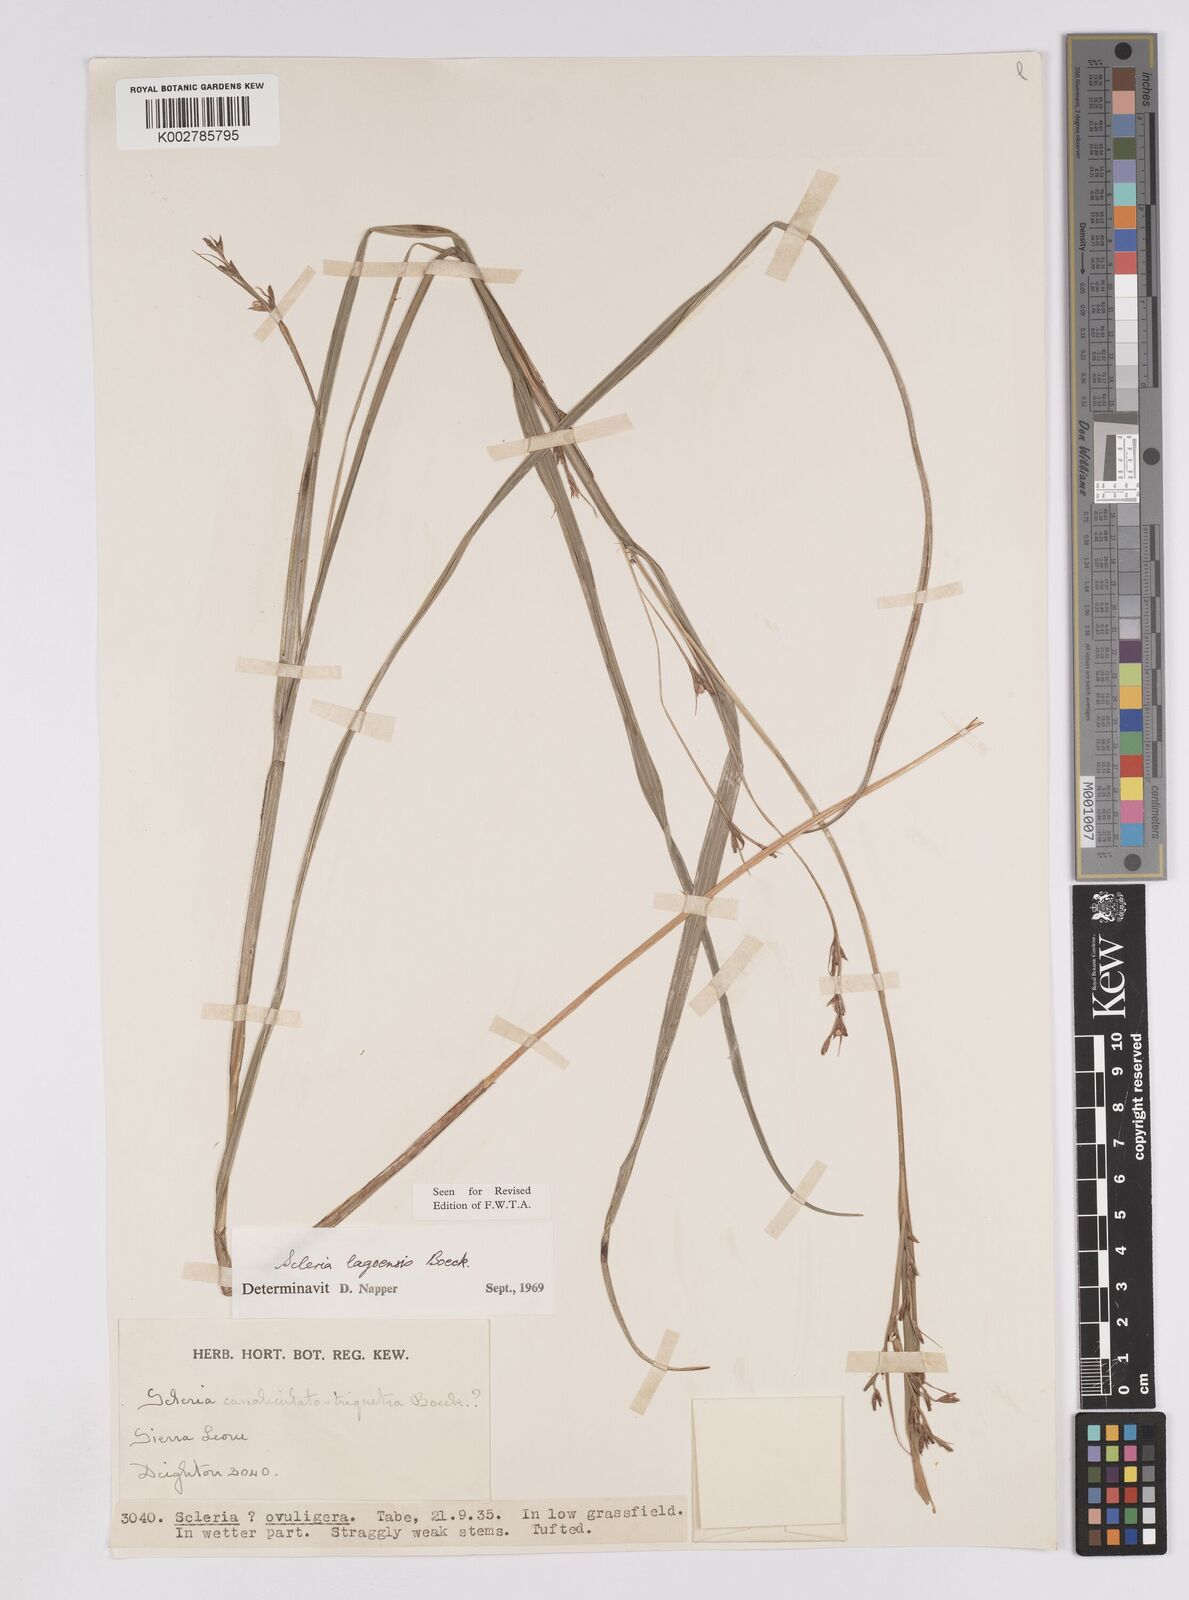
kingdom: Plantae
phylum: Tracheophyta
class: Liliopsida
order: Poales
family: Cyperaceae
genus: Scleria
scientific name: Scleria lagoensis
